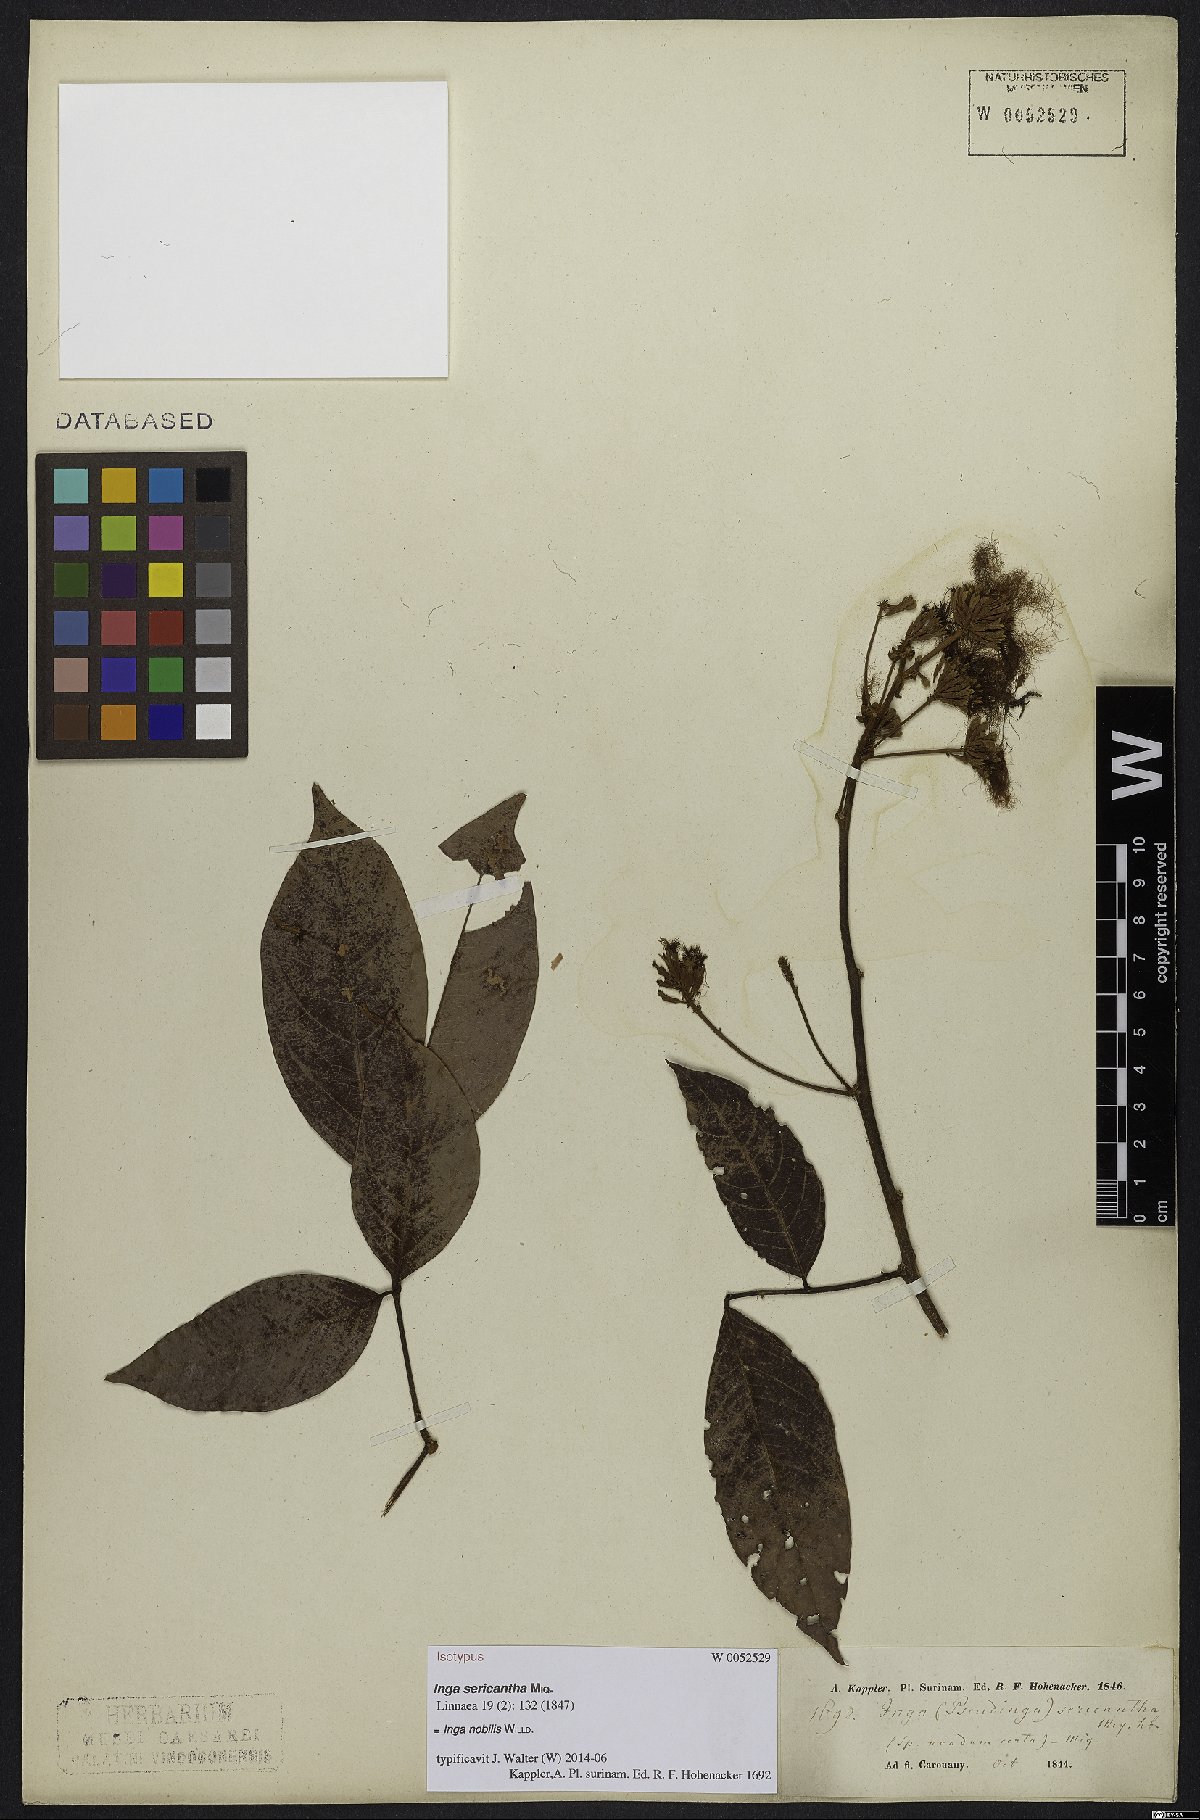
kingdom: Plantae
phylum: Tracheophyta
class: Magnoliopsida
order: Fabales
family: Fabaceae
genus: Inga
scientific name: Inga nobilis
